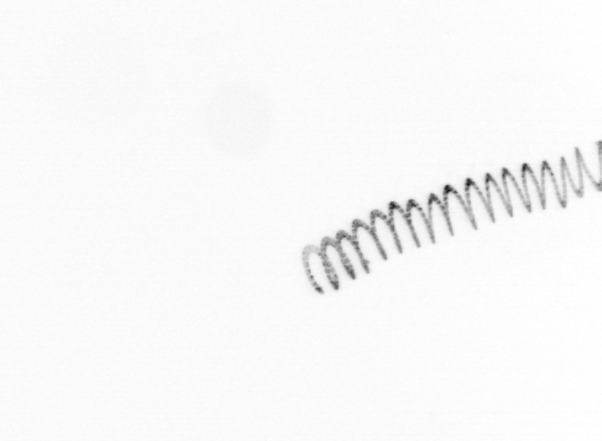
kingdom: Chromista
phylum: Ochrophyta
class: Bacillariophyceae
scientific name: Bacillariophyceae
